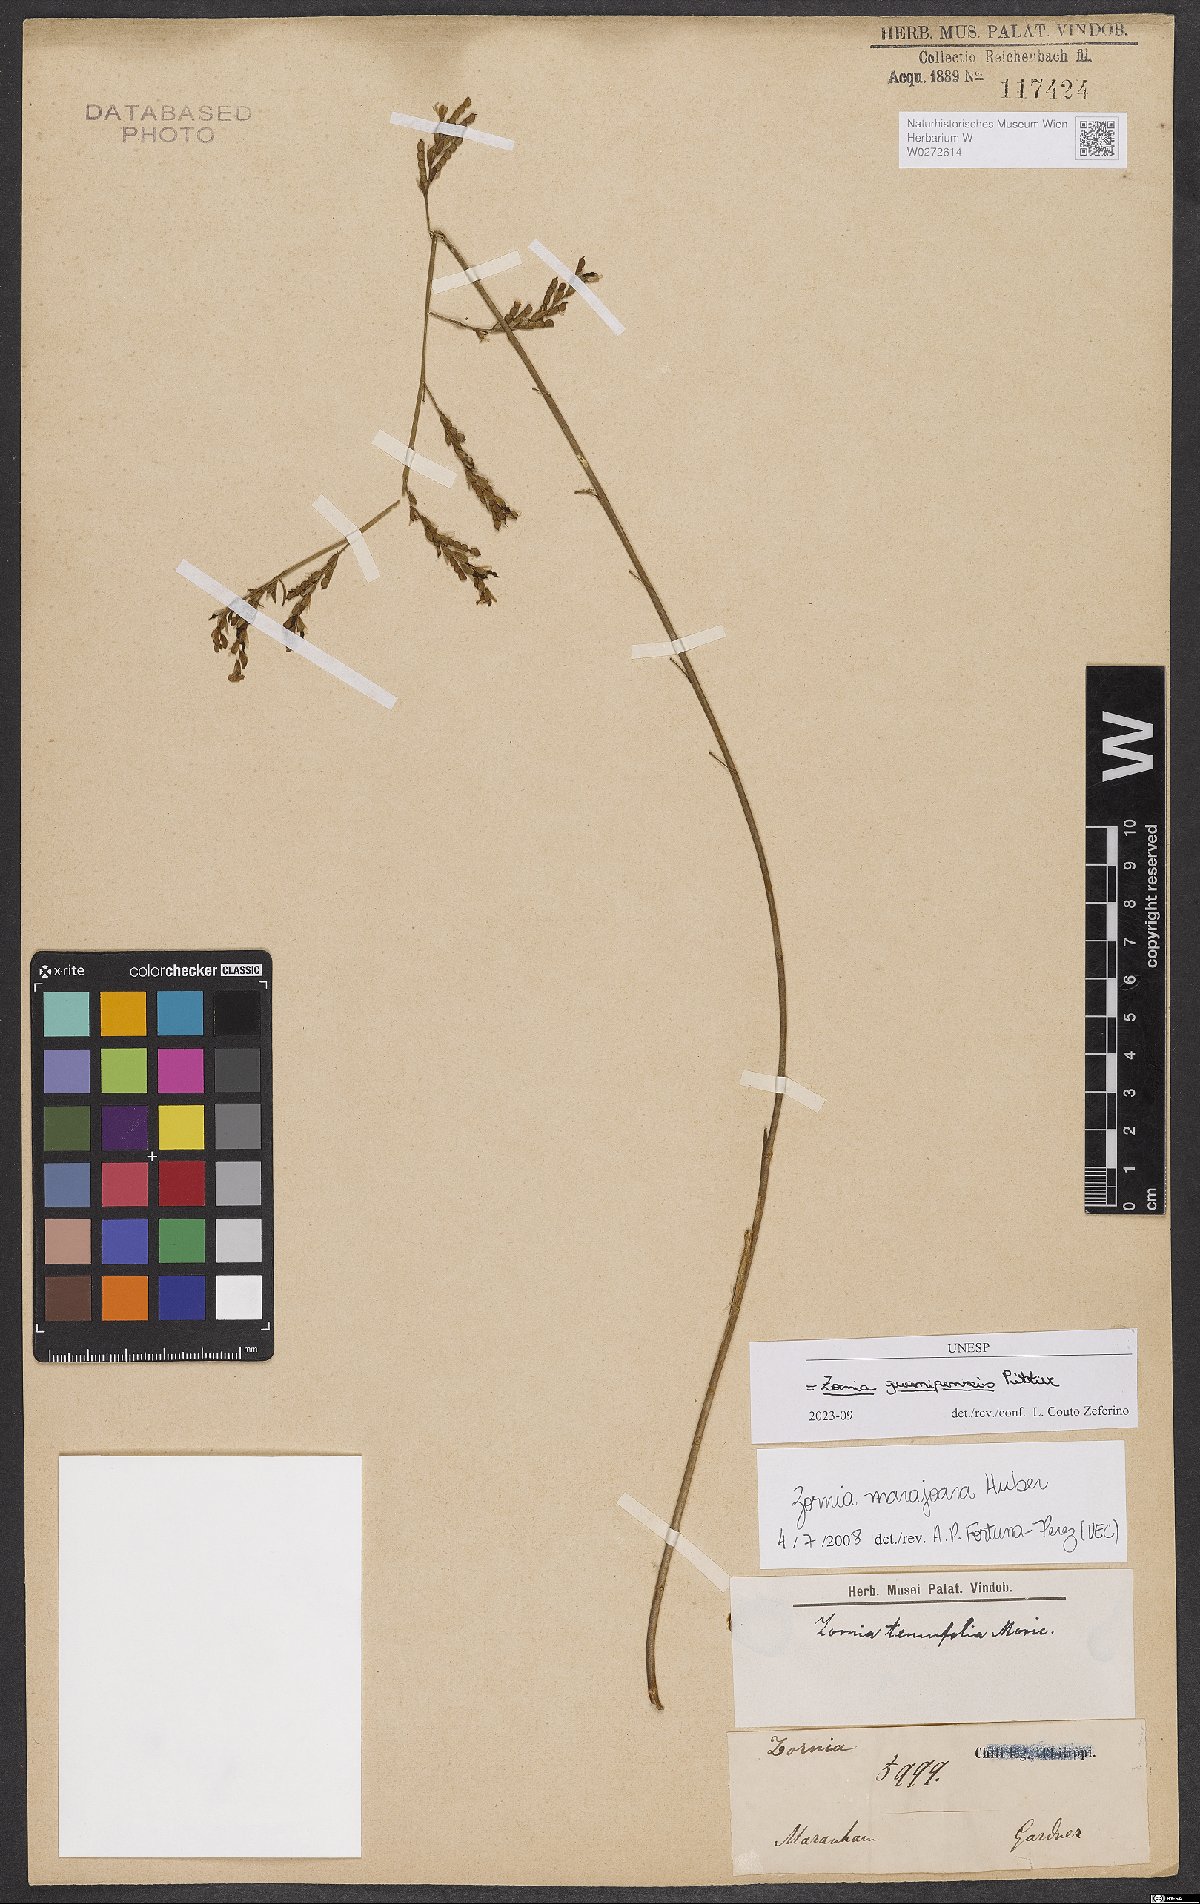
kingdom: Plantae
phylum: Tracheophyta
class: Magnoliopsida
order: Fabales
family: Fabaceae
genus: Zornia
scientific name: Zornia guanipensis
